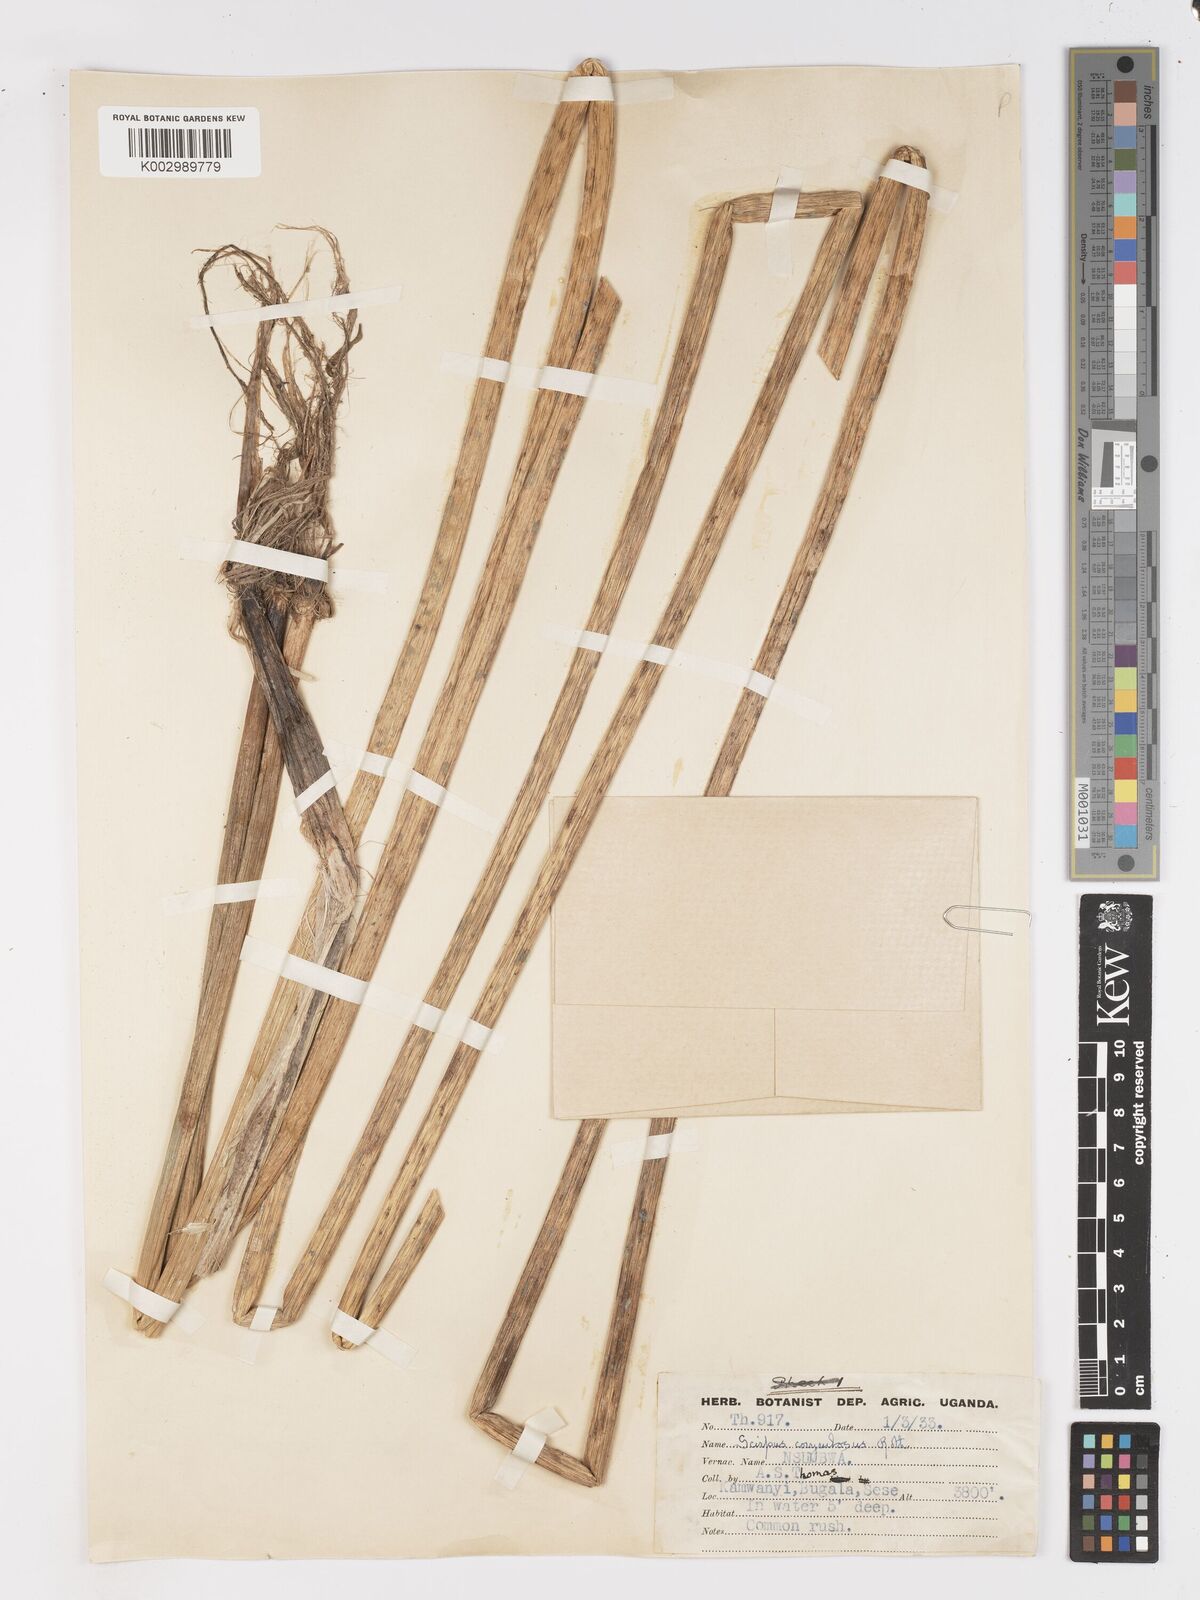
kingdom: Plantae
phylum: Tracheophyta
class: Liliopsida
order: Poales
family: Cyperaceae
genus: Schoenoplectiella
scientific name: Schoenoplectiella brachyceras
